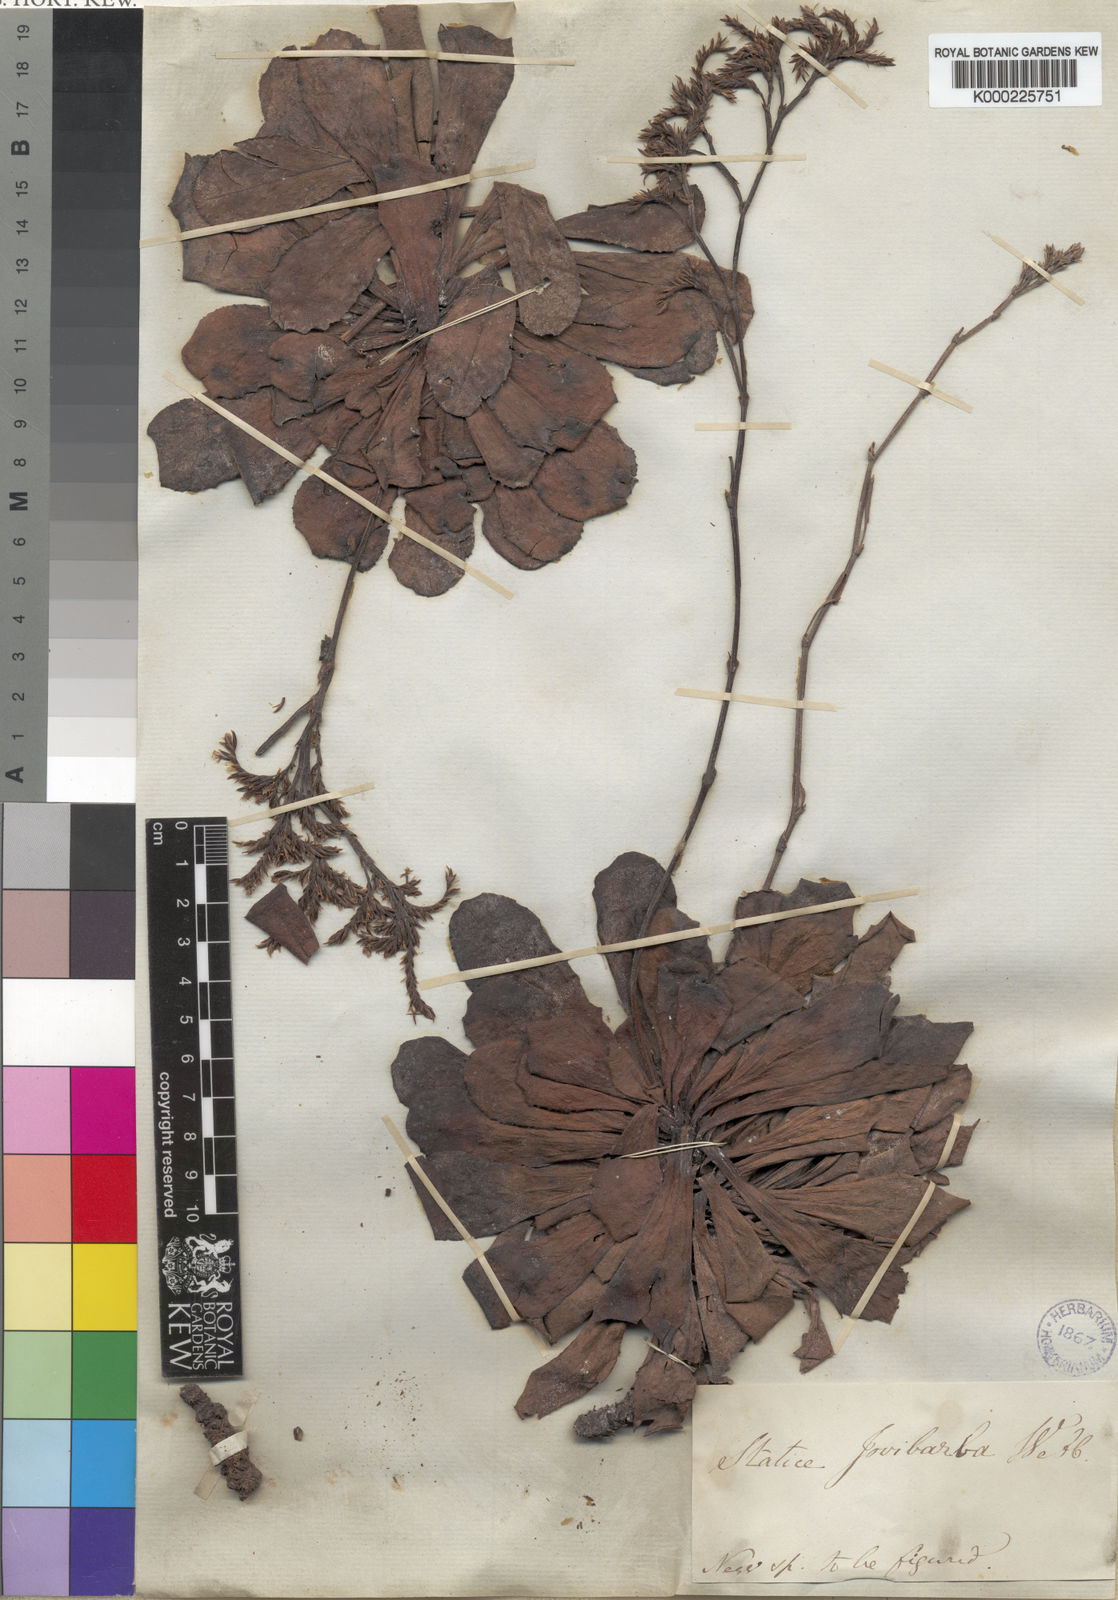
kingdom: Plantae
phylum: Tracheophyta
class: Magnoliopsida
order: Caryophyllales
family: Plumbaginaceae
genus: Limonium
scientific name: Limonium jovibarba
